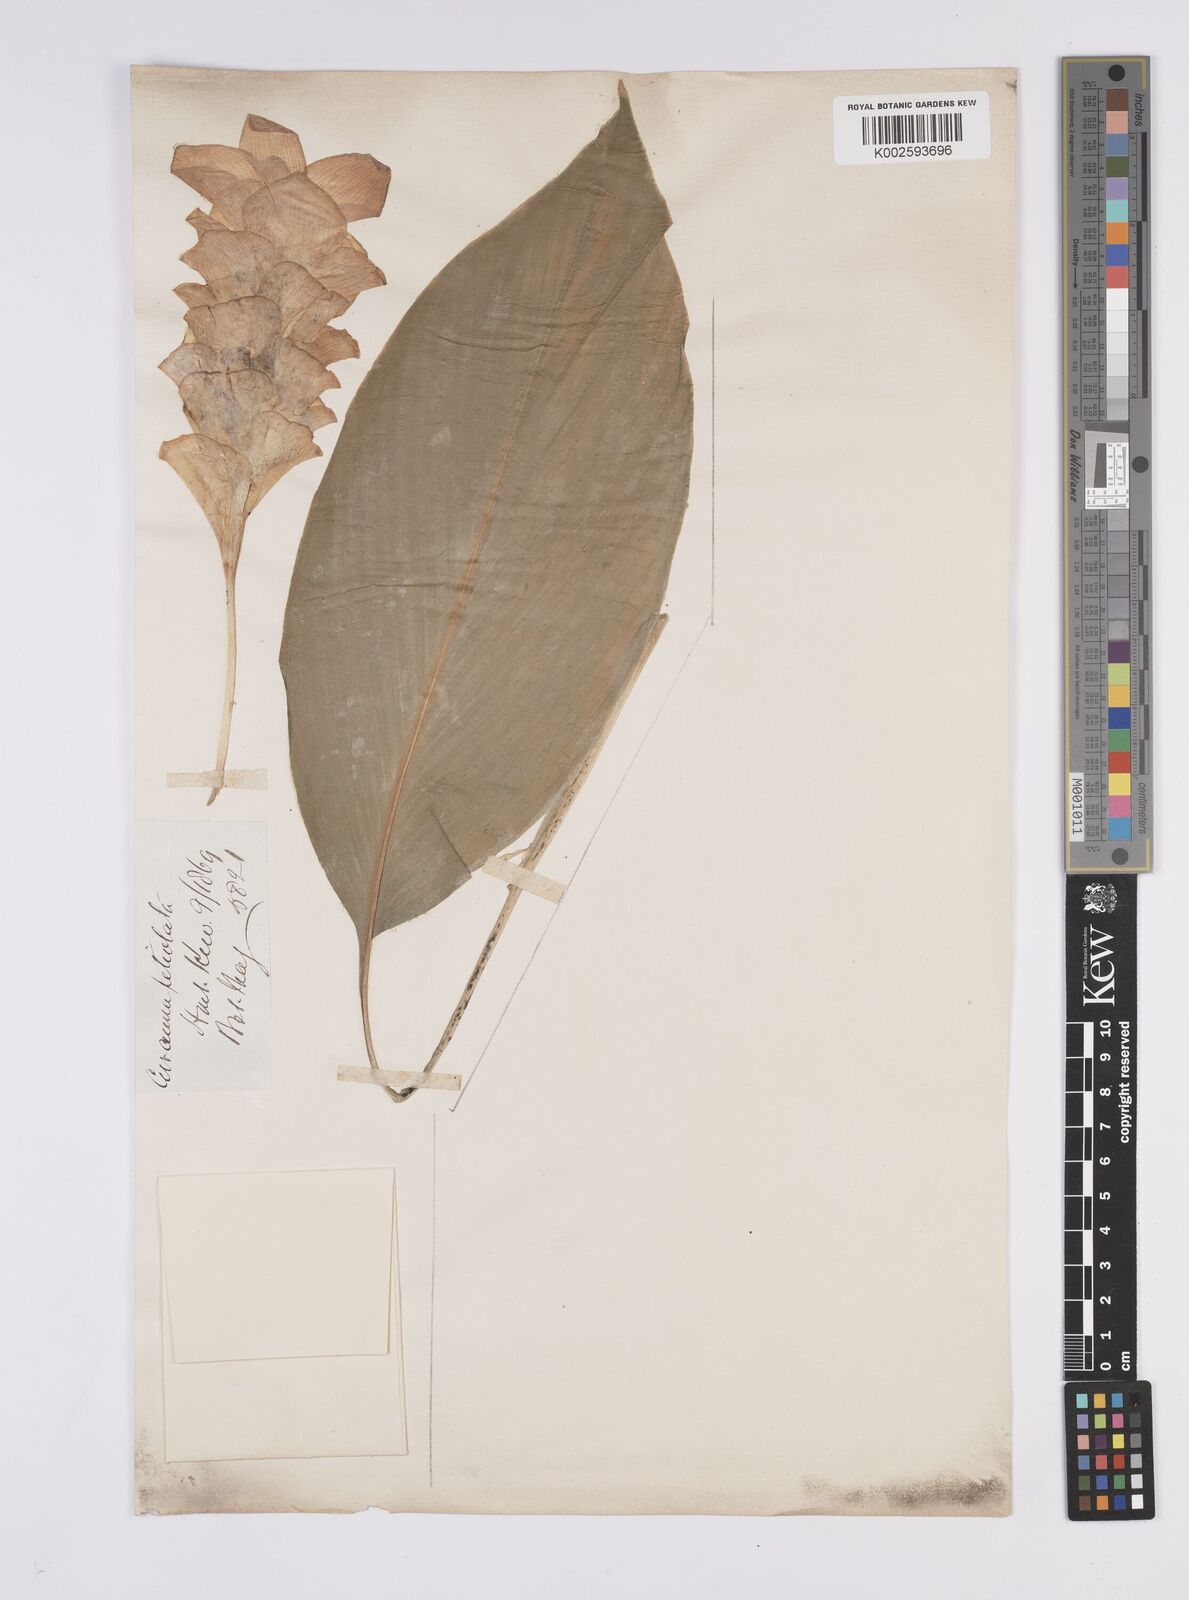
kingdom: Plantae
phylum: Tracheophyta
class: Liliopsida
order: Zingiberales
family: Zingiberaceae
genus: Curcuma
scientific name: Curcuma petiolata
